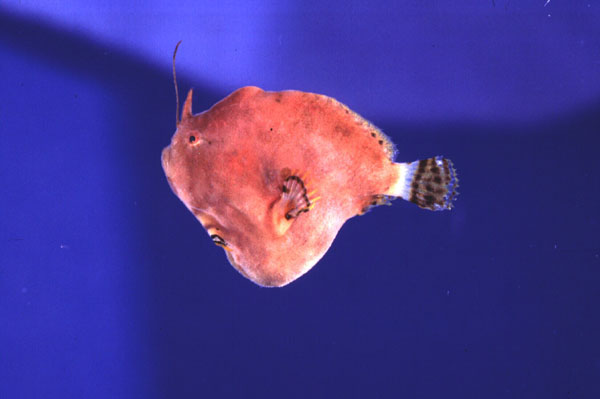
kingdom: Animalia
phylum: Chordata
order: Lophiiformes
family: Antennariidae
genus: Antennatus
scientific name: Antennatus linearis
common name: Lined frogfish
